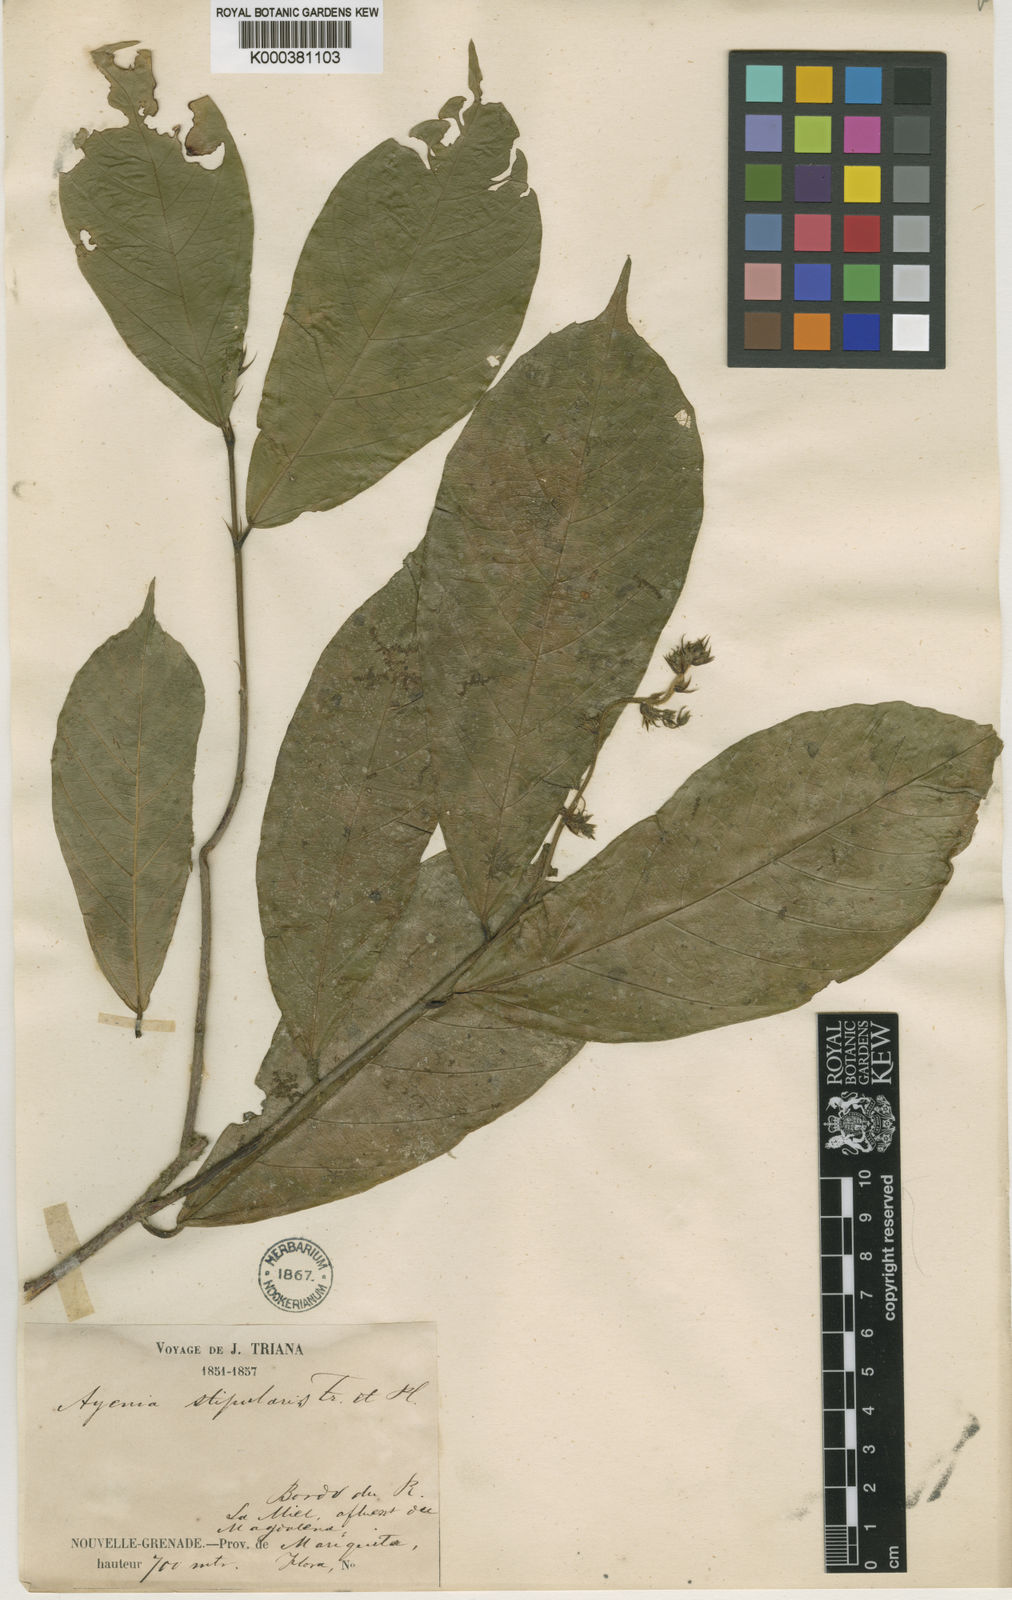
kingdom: Plantae
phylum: Tracheophyta
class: Magnoliopsida
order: Malvales
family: Malvaceae
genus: Ayenia
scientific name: Ayenia stipularis
